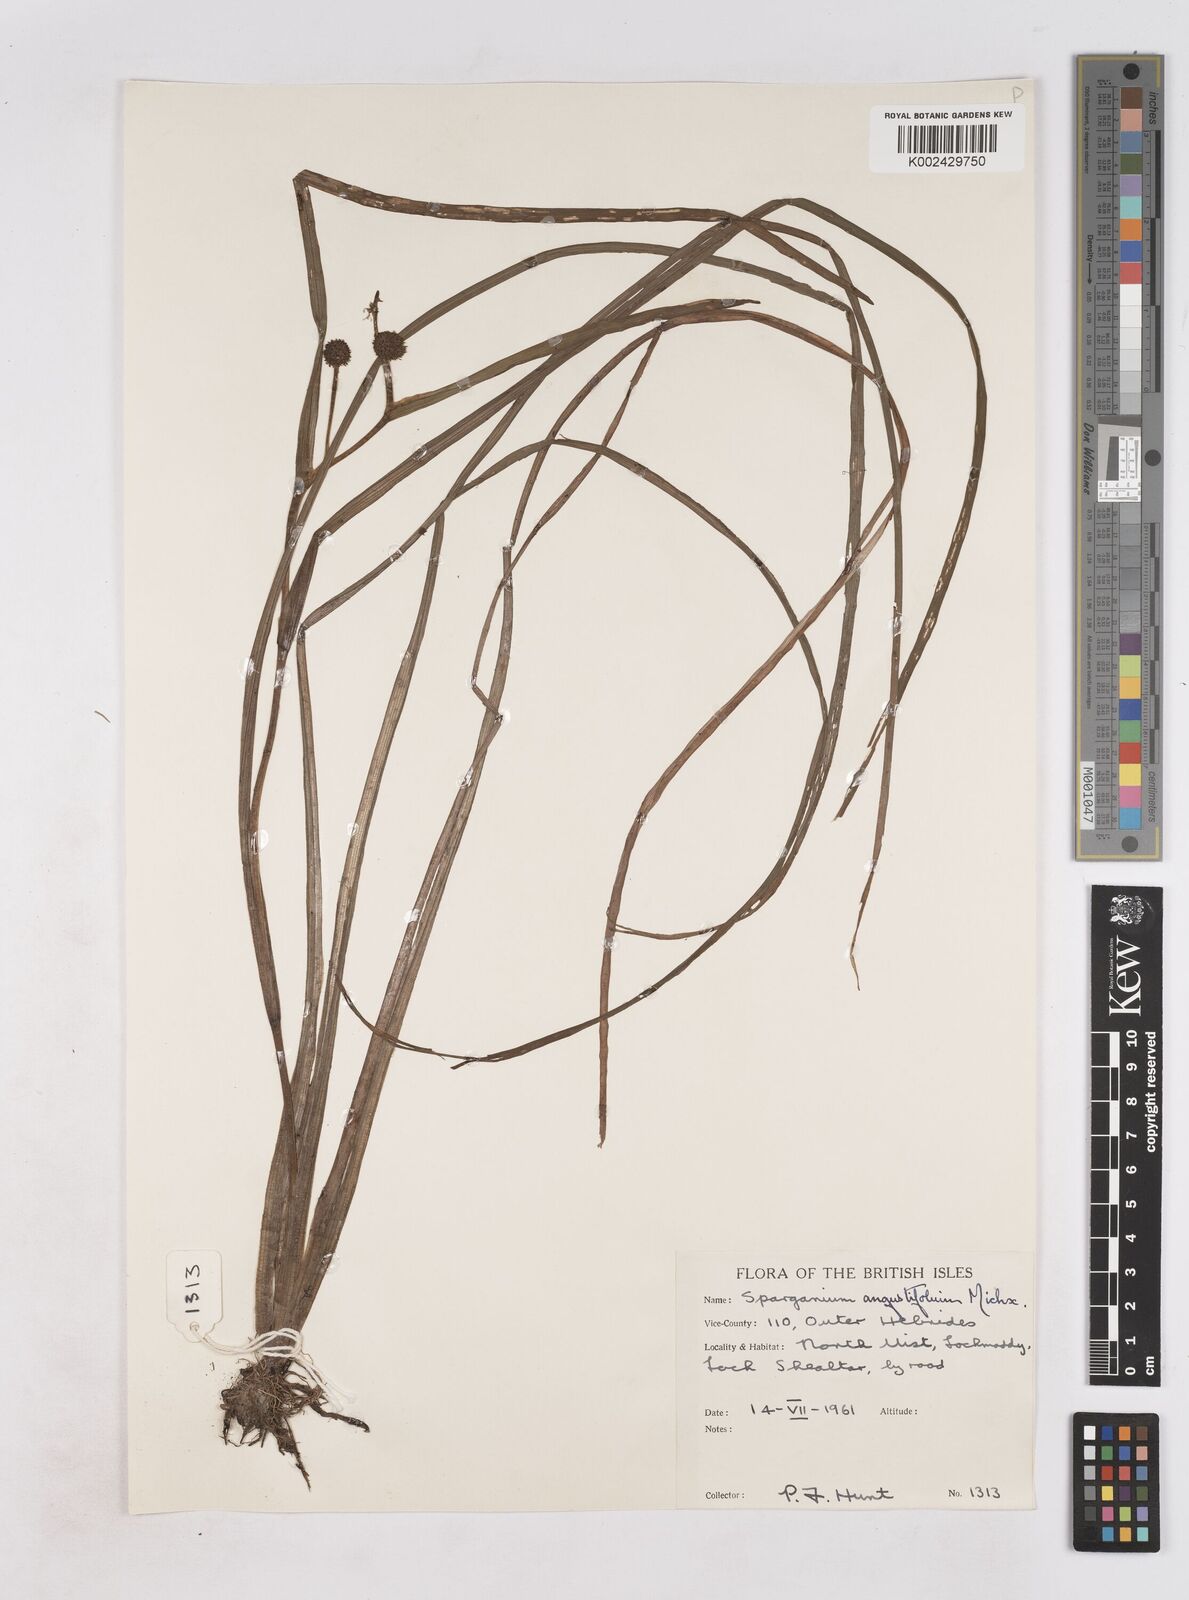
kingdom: Plantae
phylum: Tracheophyta
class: Liliopsida
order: Poales
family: Typhaceae
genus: Sparganium
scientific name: Sparganium angustifolium
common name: Floating bur-reed
